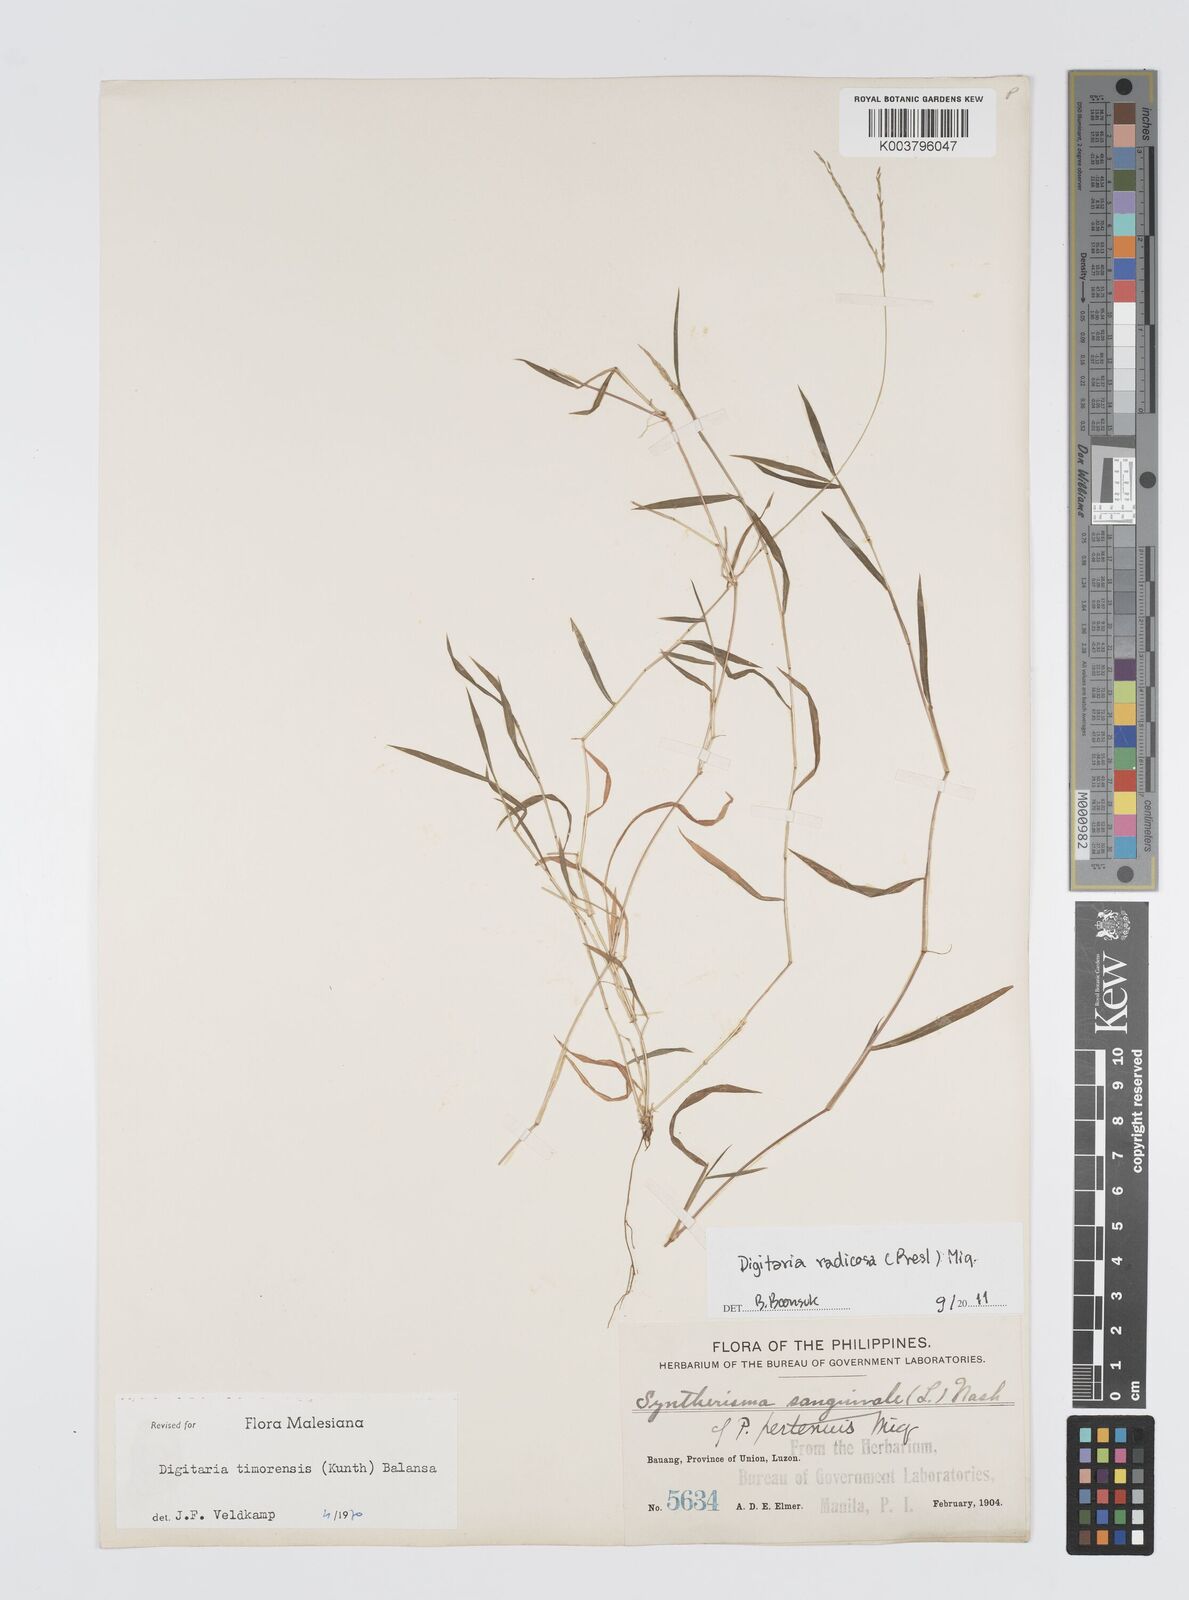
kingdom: Plantae
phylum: Tracheophyta
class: Liliopsida
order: Poales
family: Poaceae
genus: Digitaria
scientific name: Digitaria radicosa
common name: Trailing crabgrass
